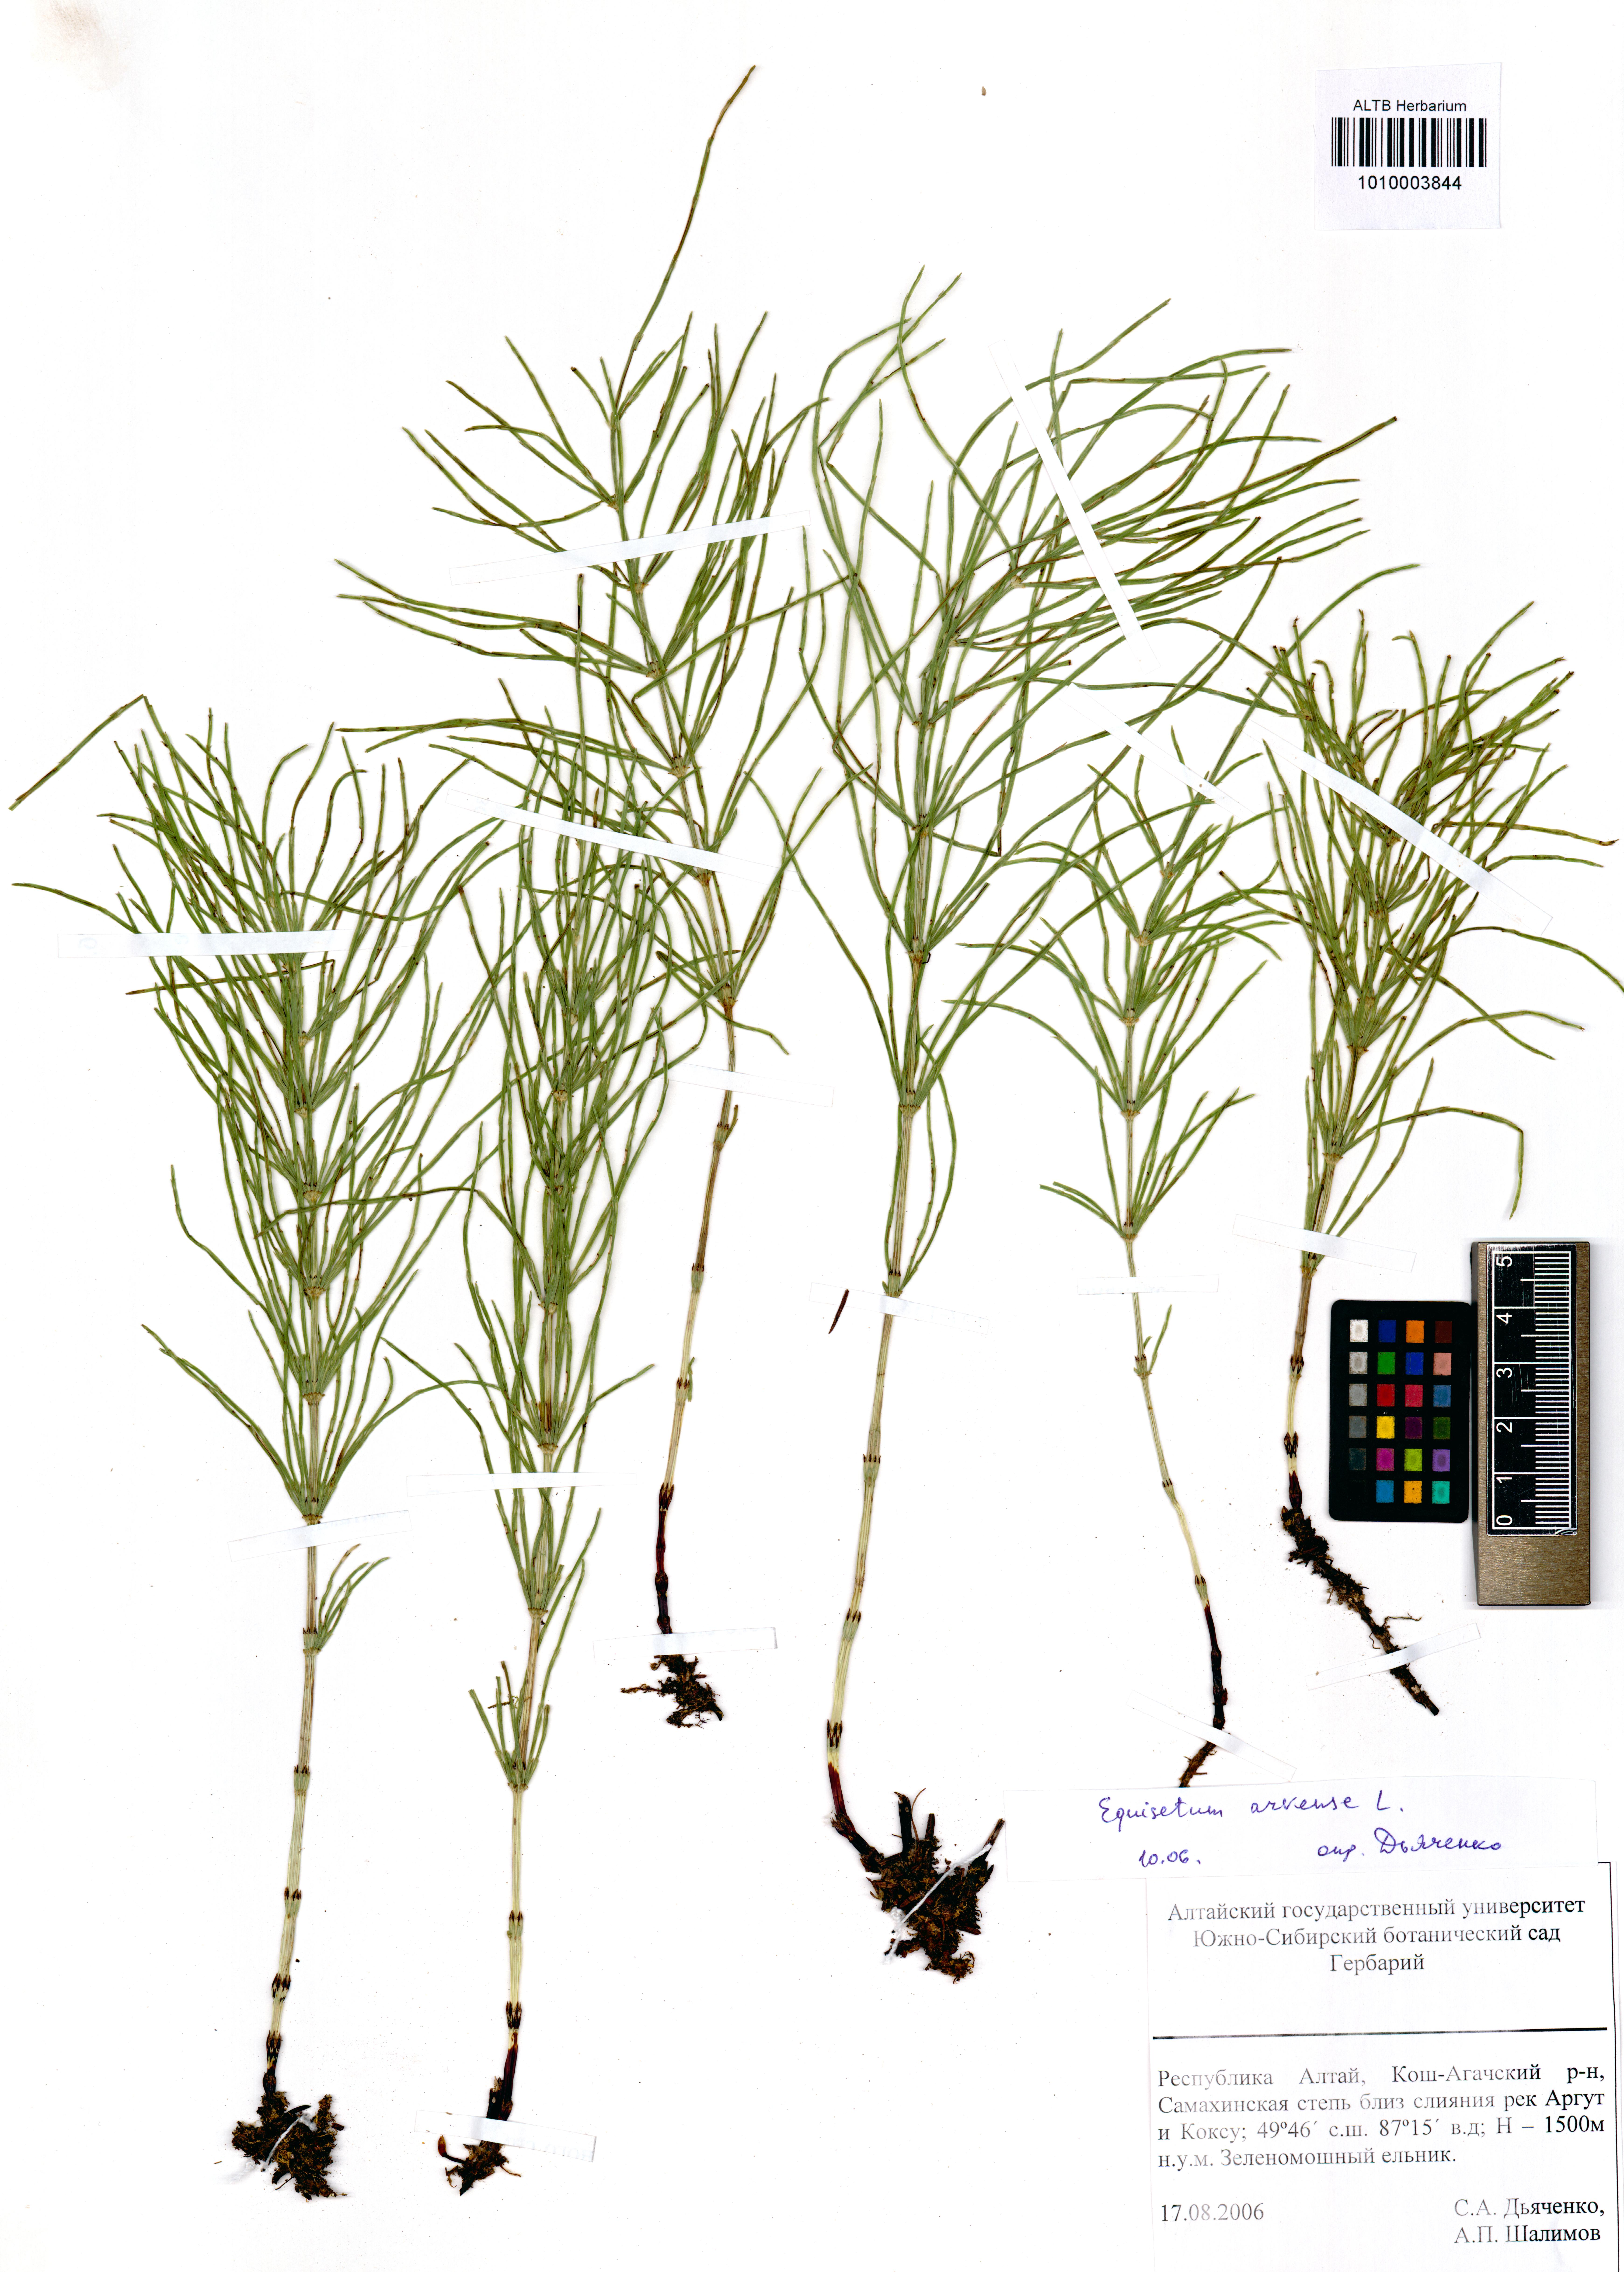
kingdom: Plantae
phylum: Tracheophyta
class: Polypodiopsida
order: Equisetales
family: Equisetaceae
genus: Equisetum
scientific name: Equisetum arvense
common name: Field horsetail
